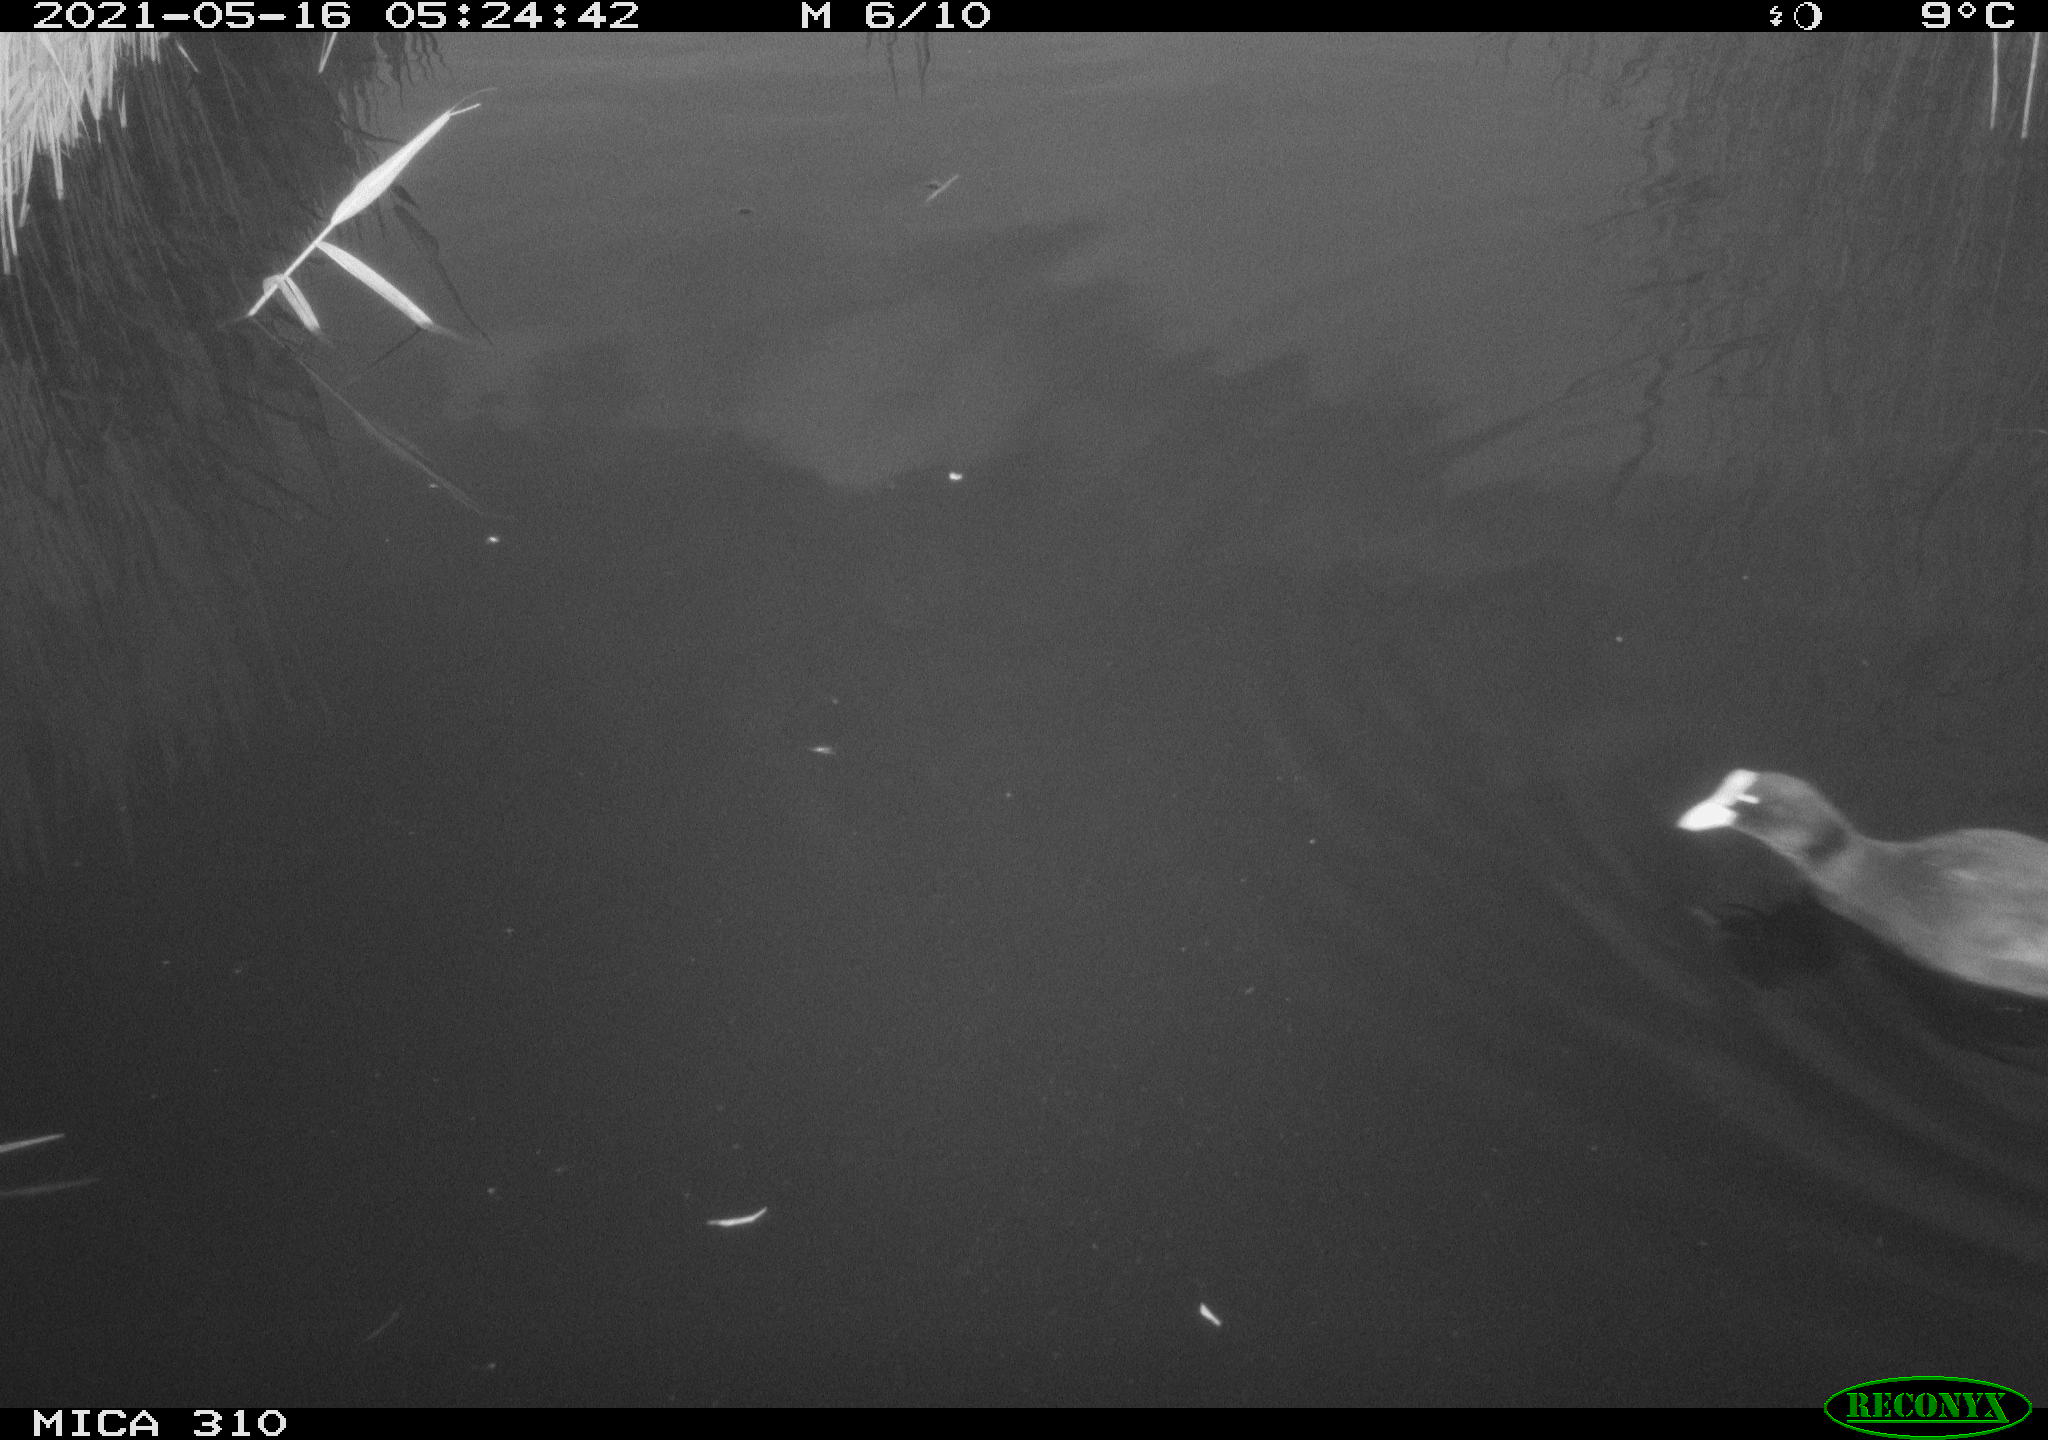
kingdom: Animalia
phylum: Chordata
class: Aves
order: Gruiformes
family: Rallidae
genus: Fulica
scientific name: Fulica atra
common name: Eurasian coot
